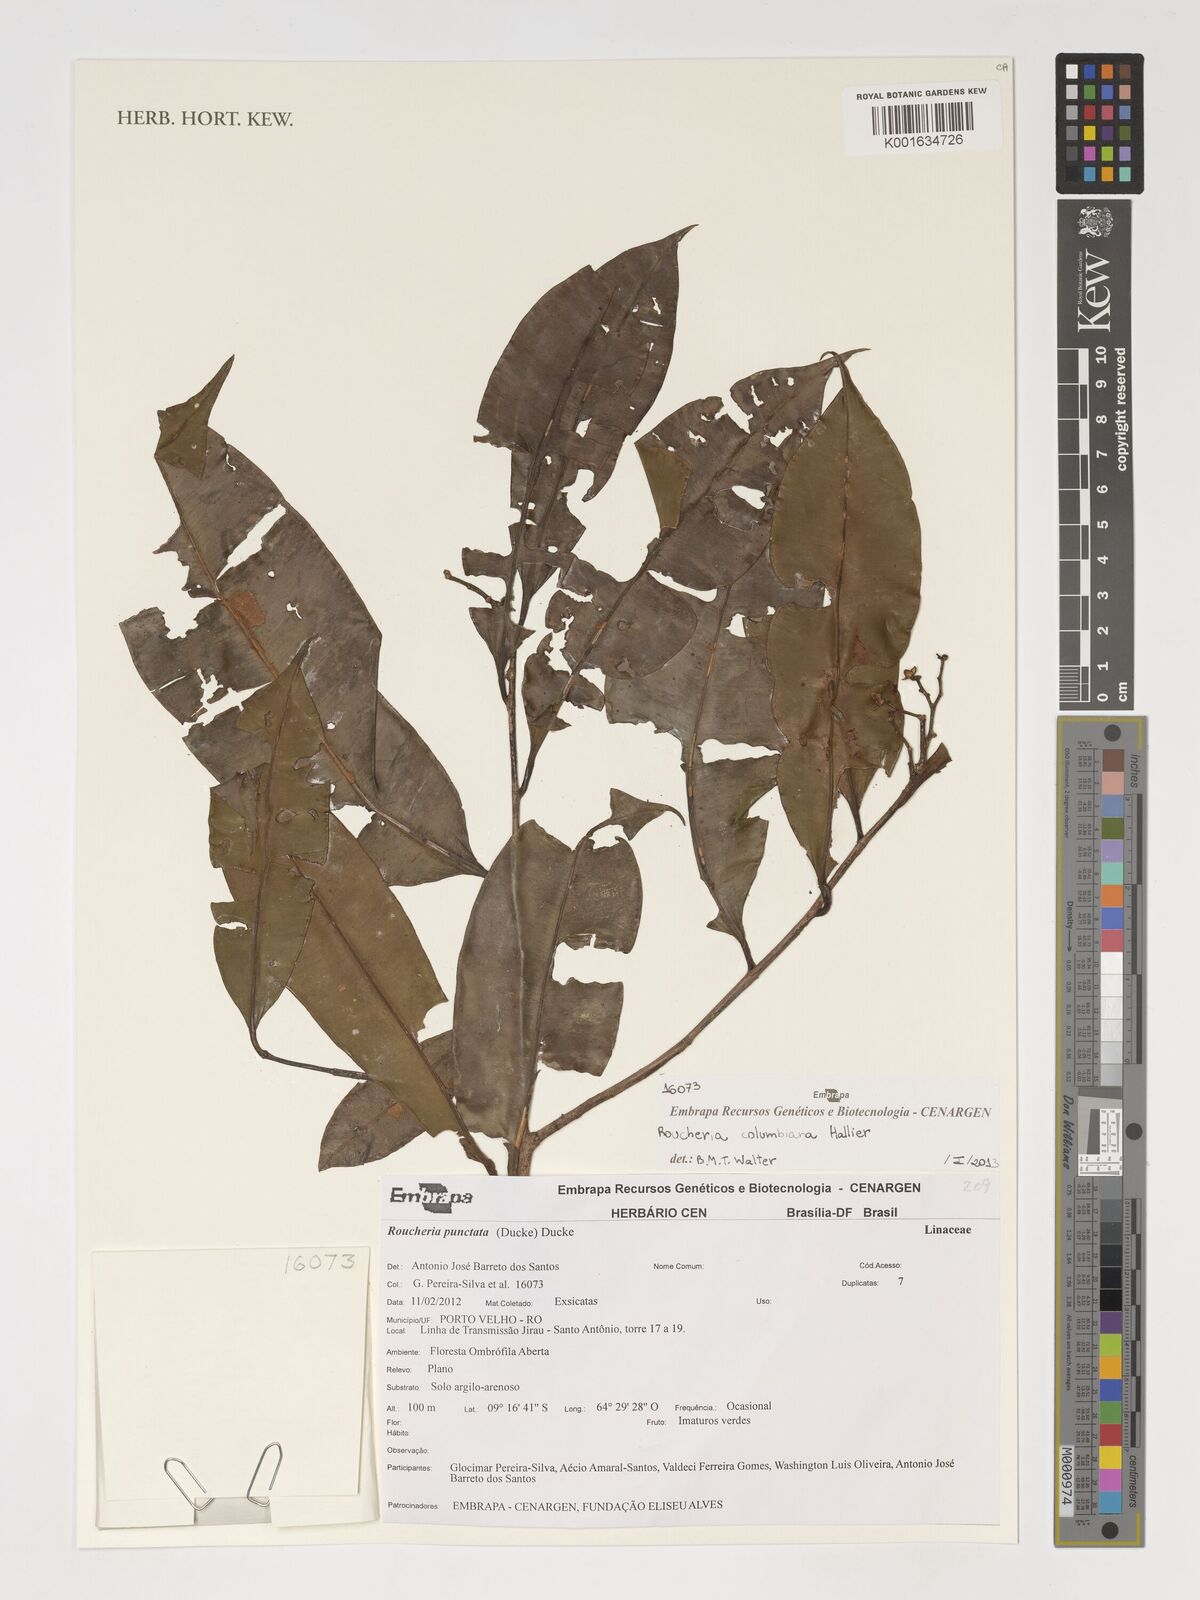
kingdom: Plantae
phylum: Tracheophyta
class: Magnoliopsida
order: Malpighiales
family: Linaceae
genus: Roucheria
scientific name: Roucheria columbiana
